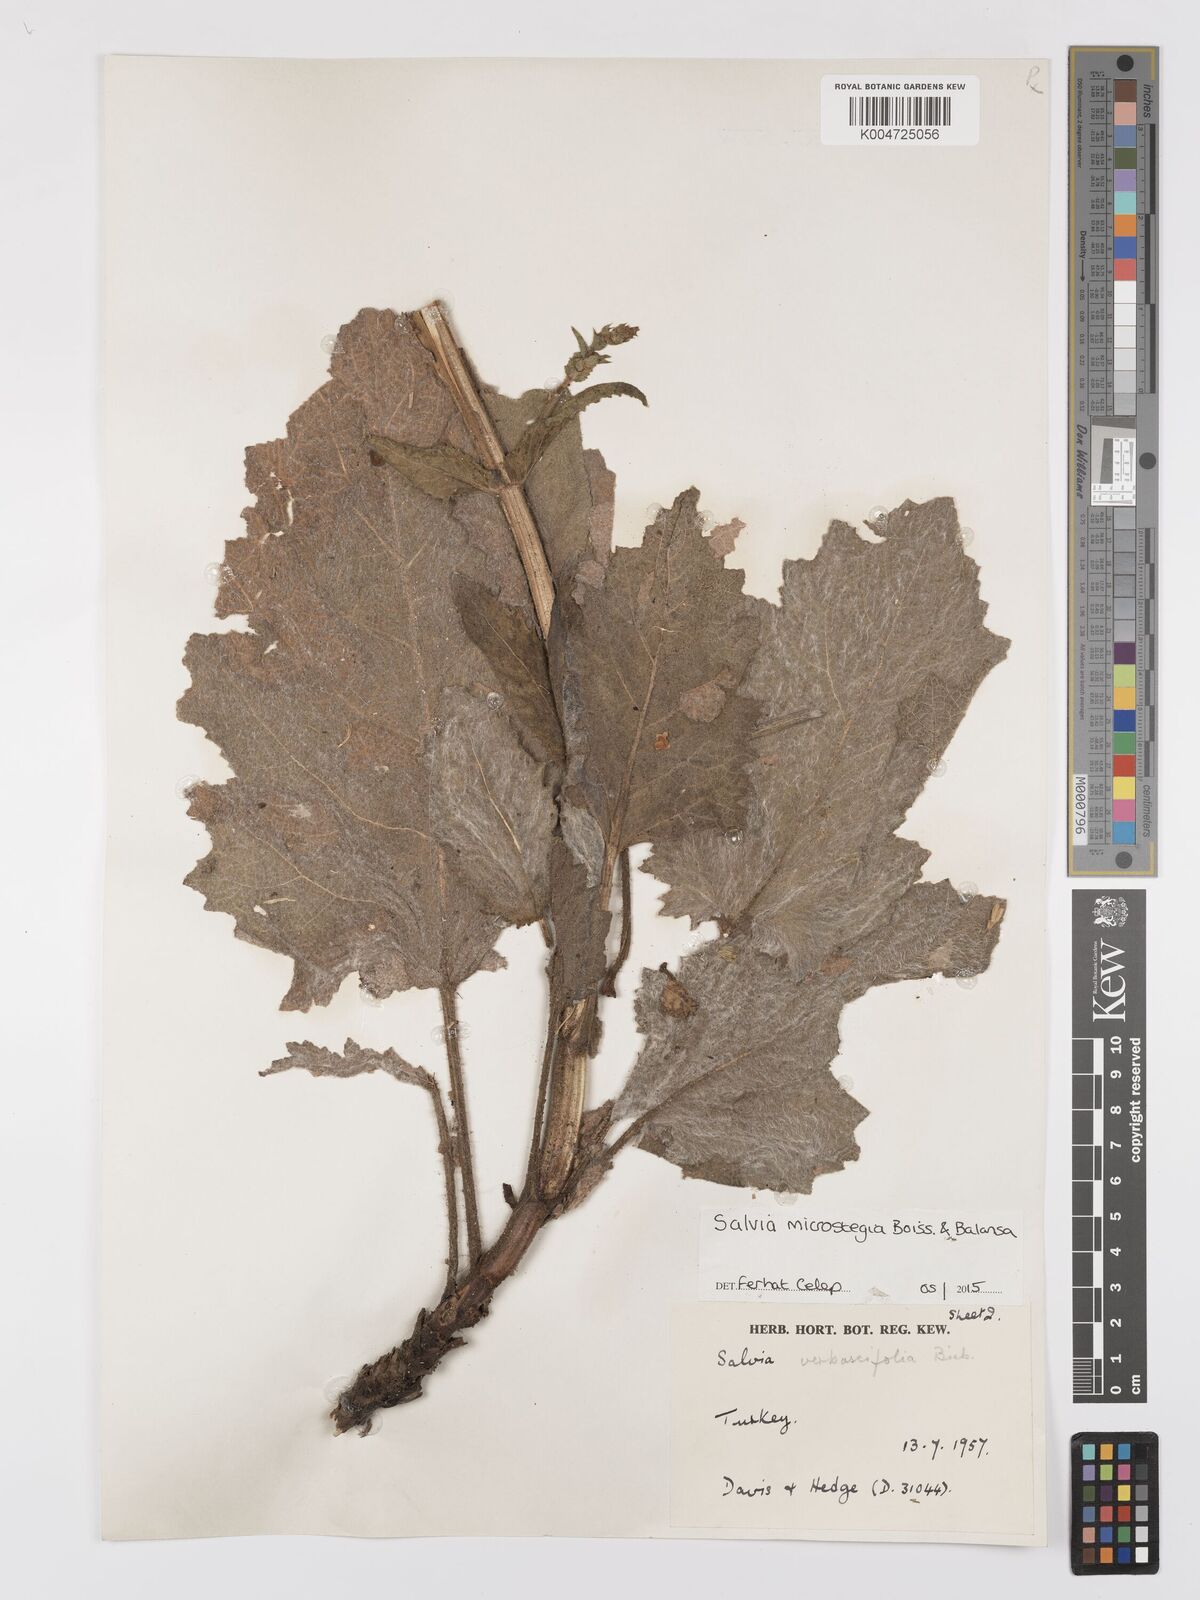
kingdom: Plantae
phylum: Tracheophyta
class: Magnoliopsida
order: Lamiales
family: Lamiaceae
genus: Salvia
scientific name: Salvia microstegia
